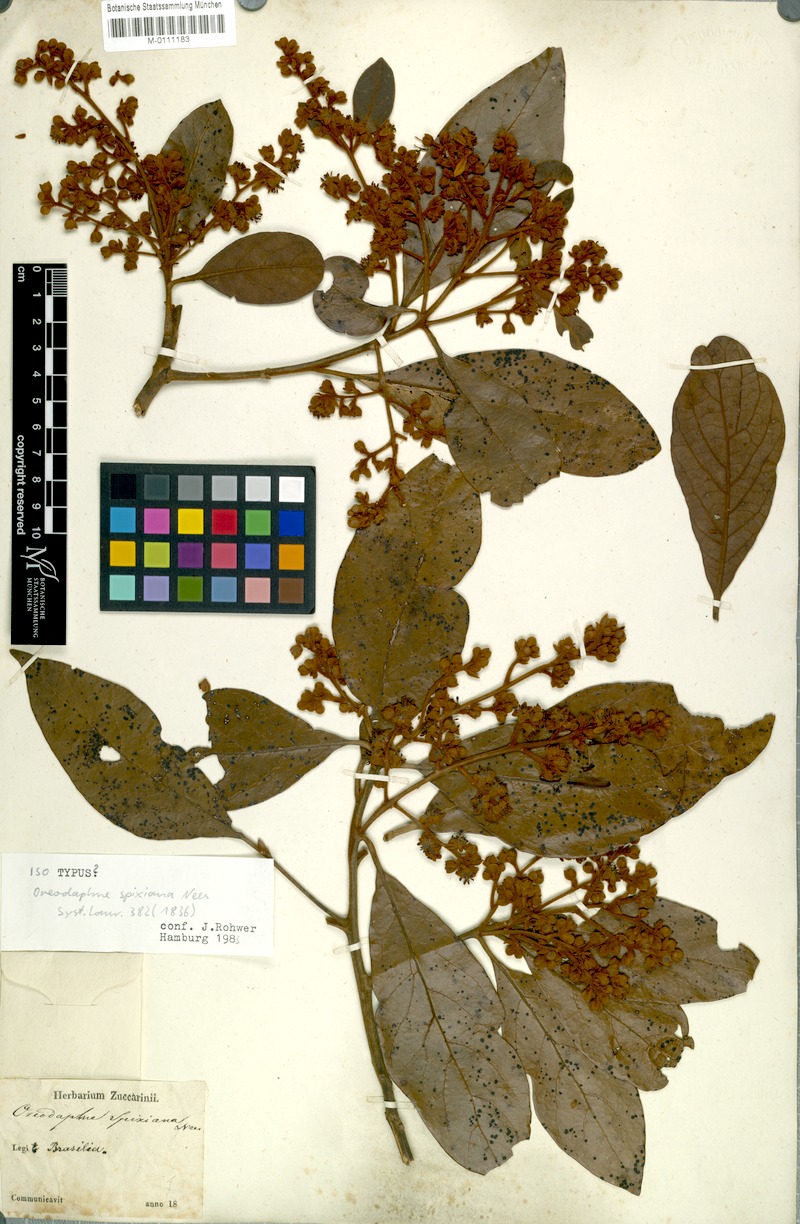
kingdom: Plantae
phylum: Tracheophyta
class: Magnoliopsida
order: Laurales
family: Lauraceae
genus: Ocotea
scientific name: Ocotea spixiana
